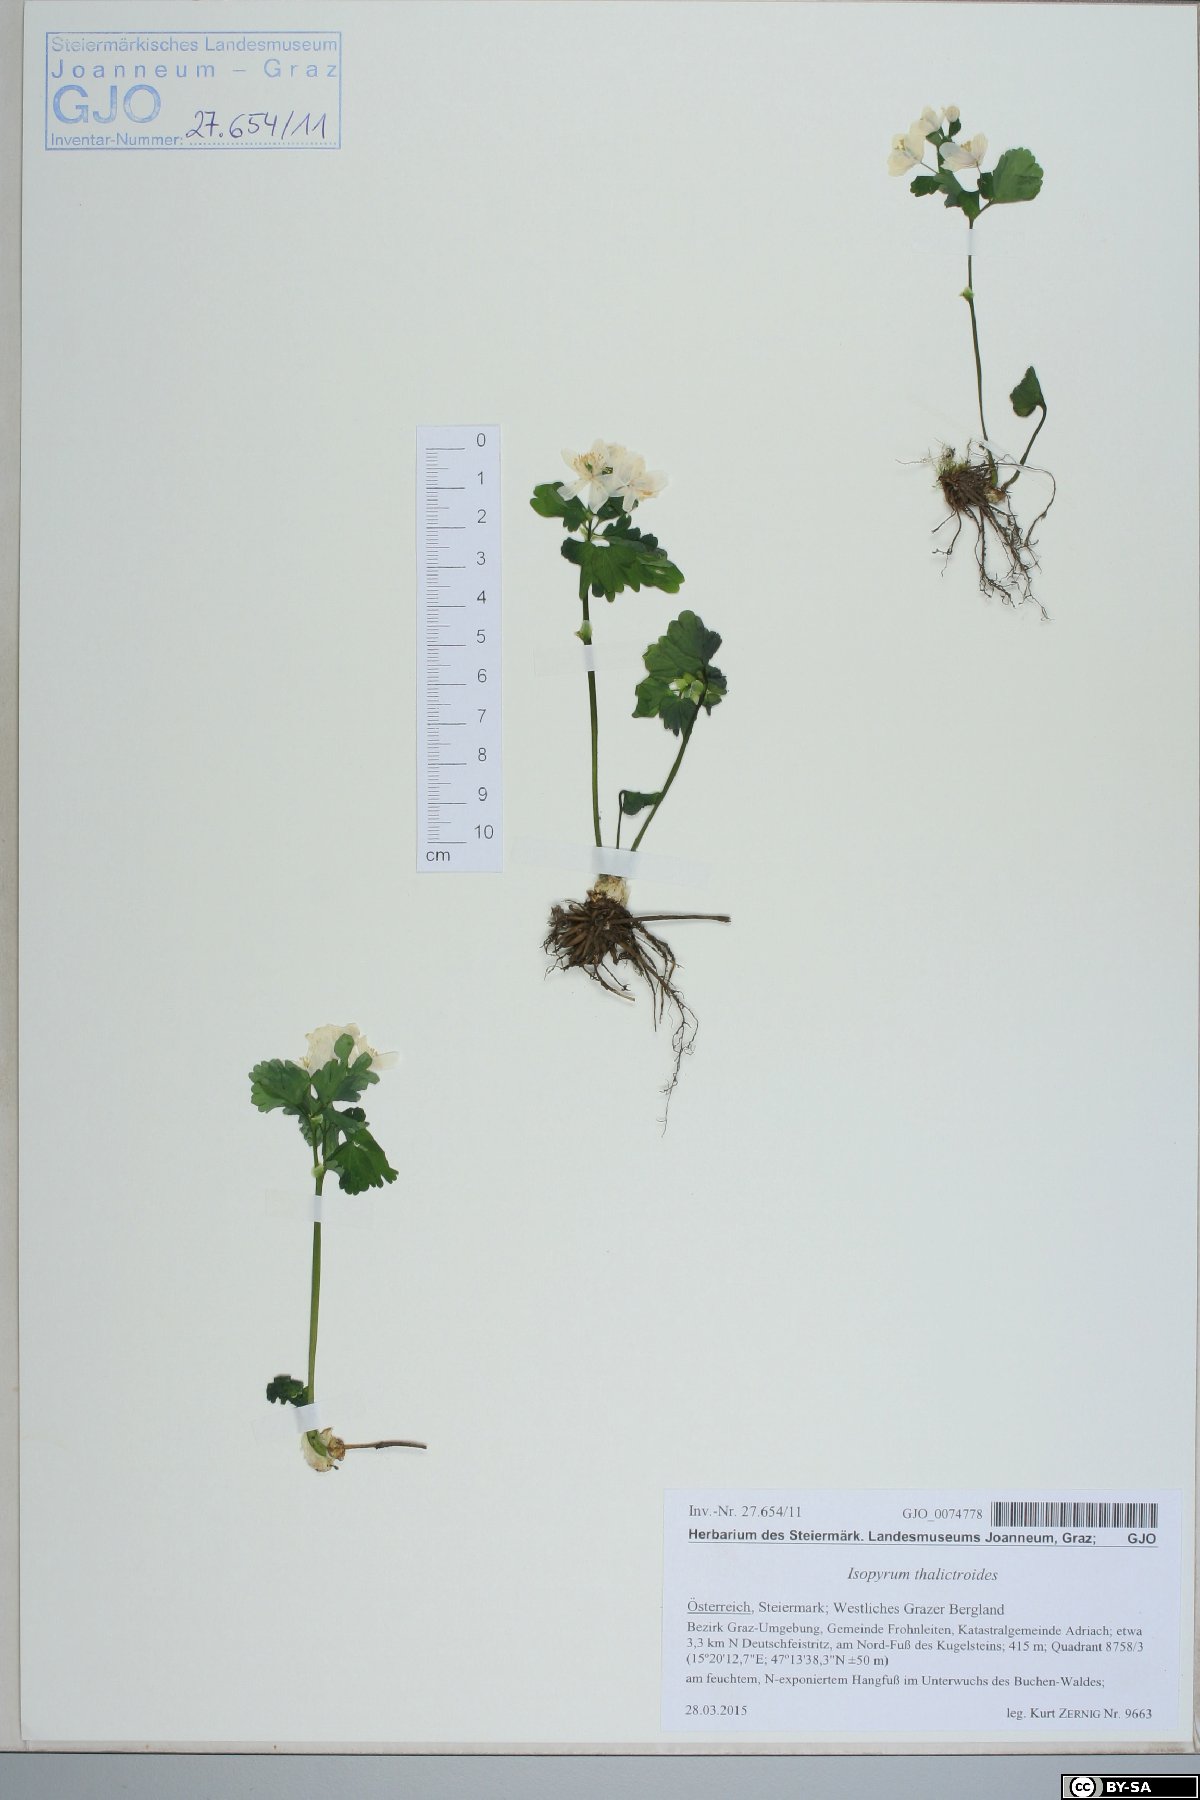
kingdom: Plantae
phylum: Tracheophyta
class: Magnoliopsida
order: Ranunculales
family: Ranunculaceae
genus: Isopyrum
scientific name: Isopyrum thalictroides
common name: Isopyrum
